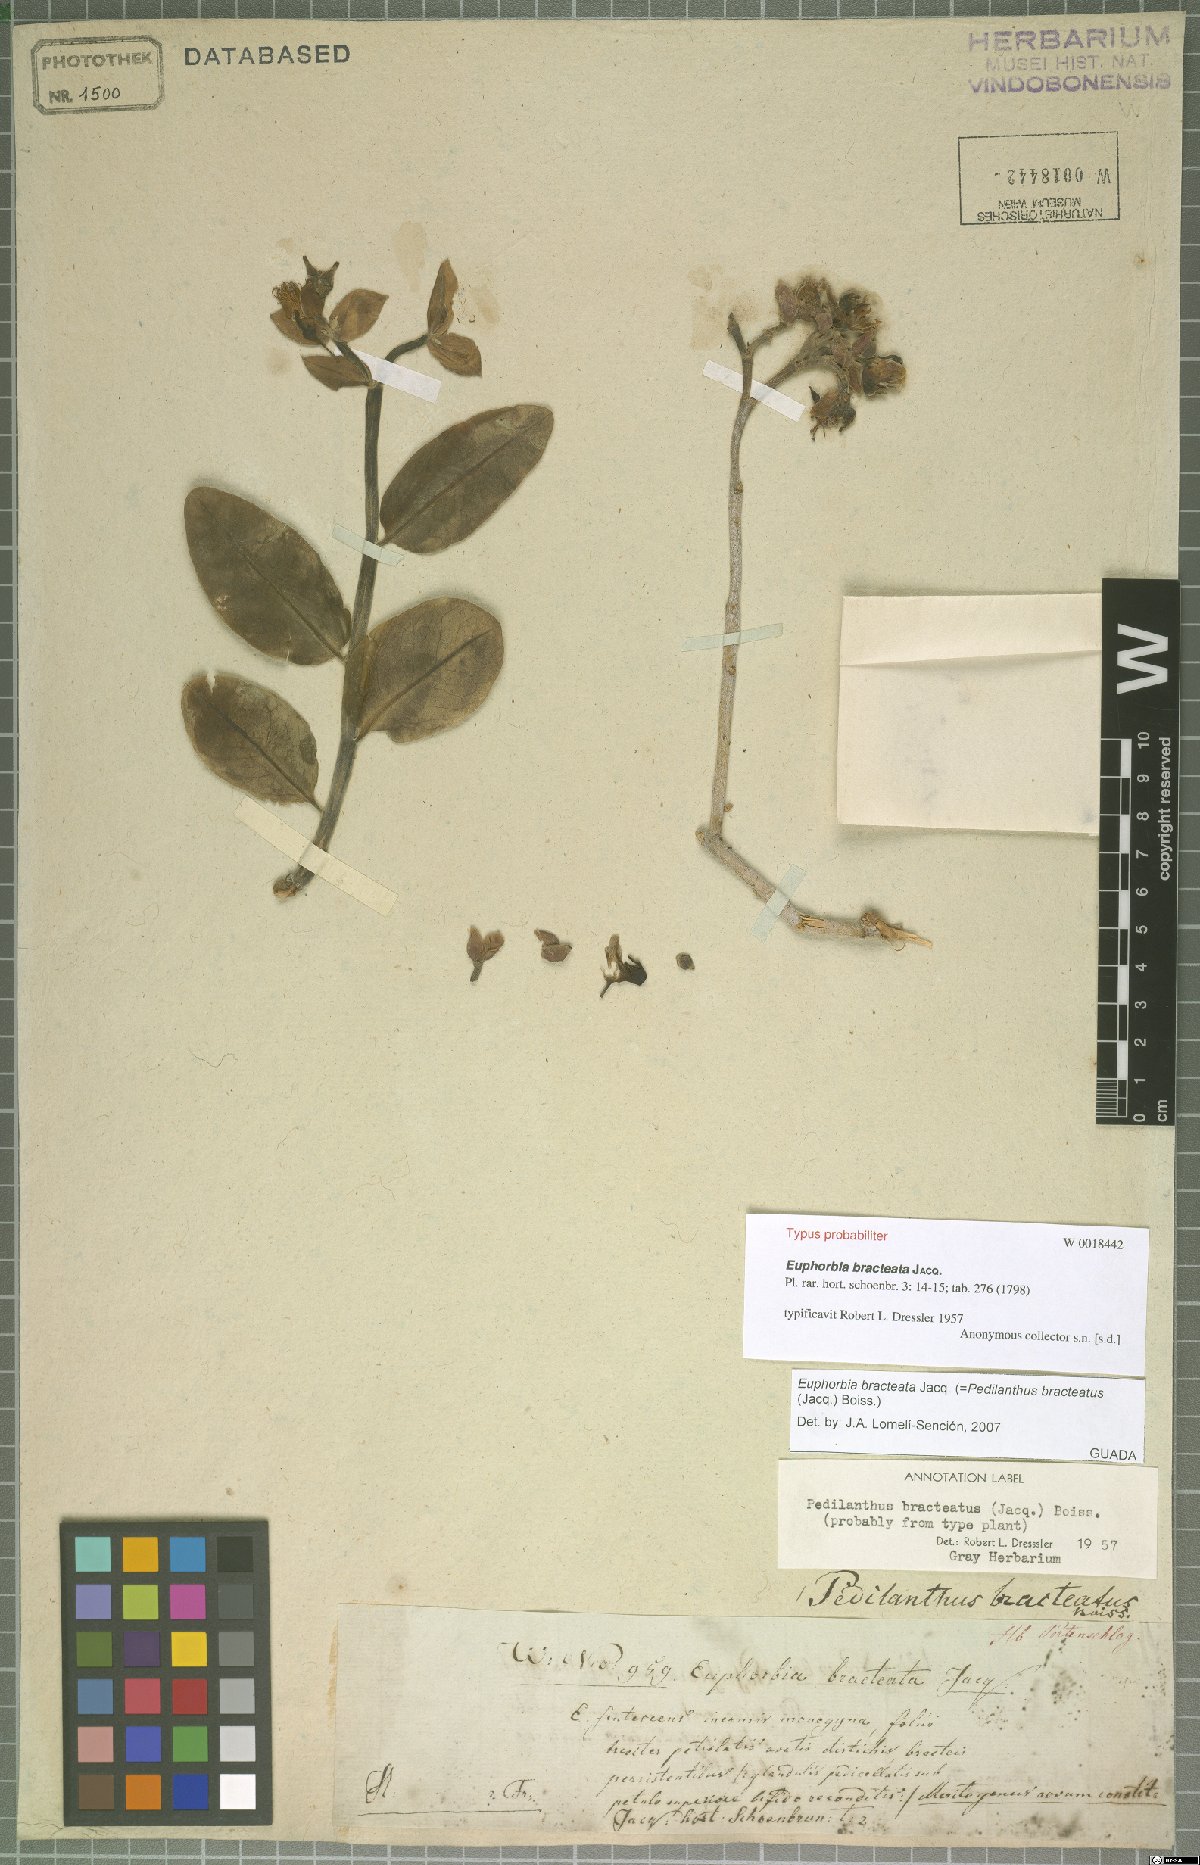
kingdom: Plantae
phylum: Tracheophyta
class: Magnoliopsida
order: Malpighiales
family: Euphorbiaceae
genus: Euphorbia
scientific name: Euphorbia bracteata
